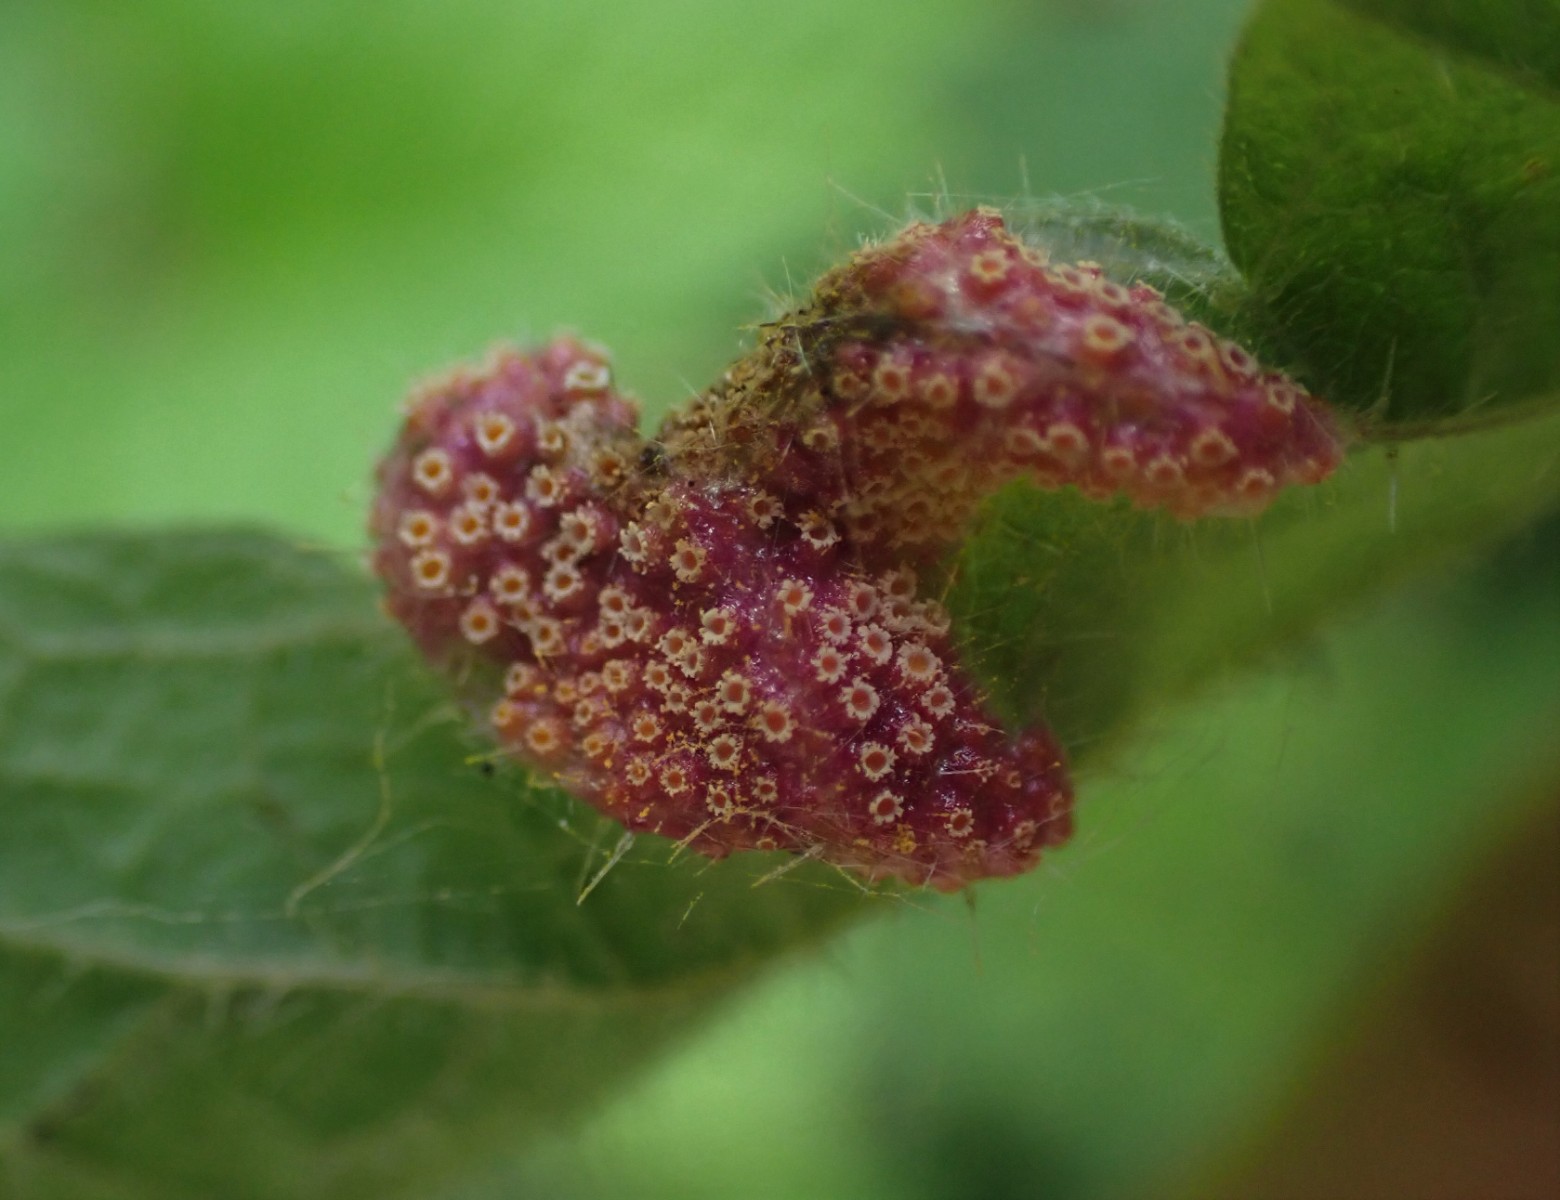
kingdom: Fungi
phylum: Basidiomycota
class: Pucciniomycetes
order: Pucciniales
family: Pucciniaceae
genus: Puccinia
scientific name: Puccinia urticata
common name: nældegalle-tvecellerust
